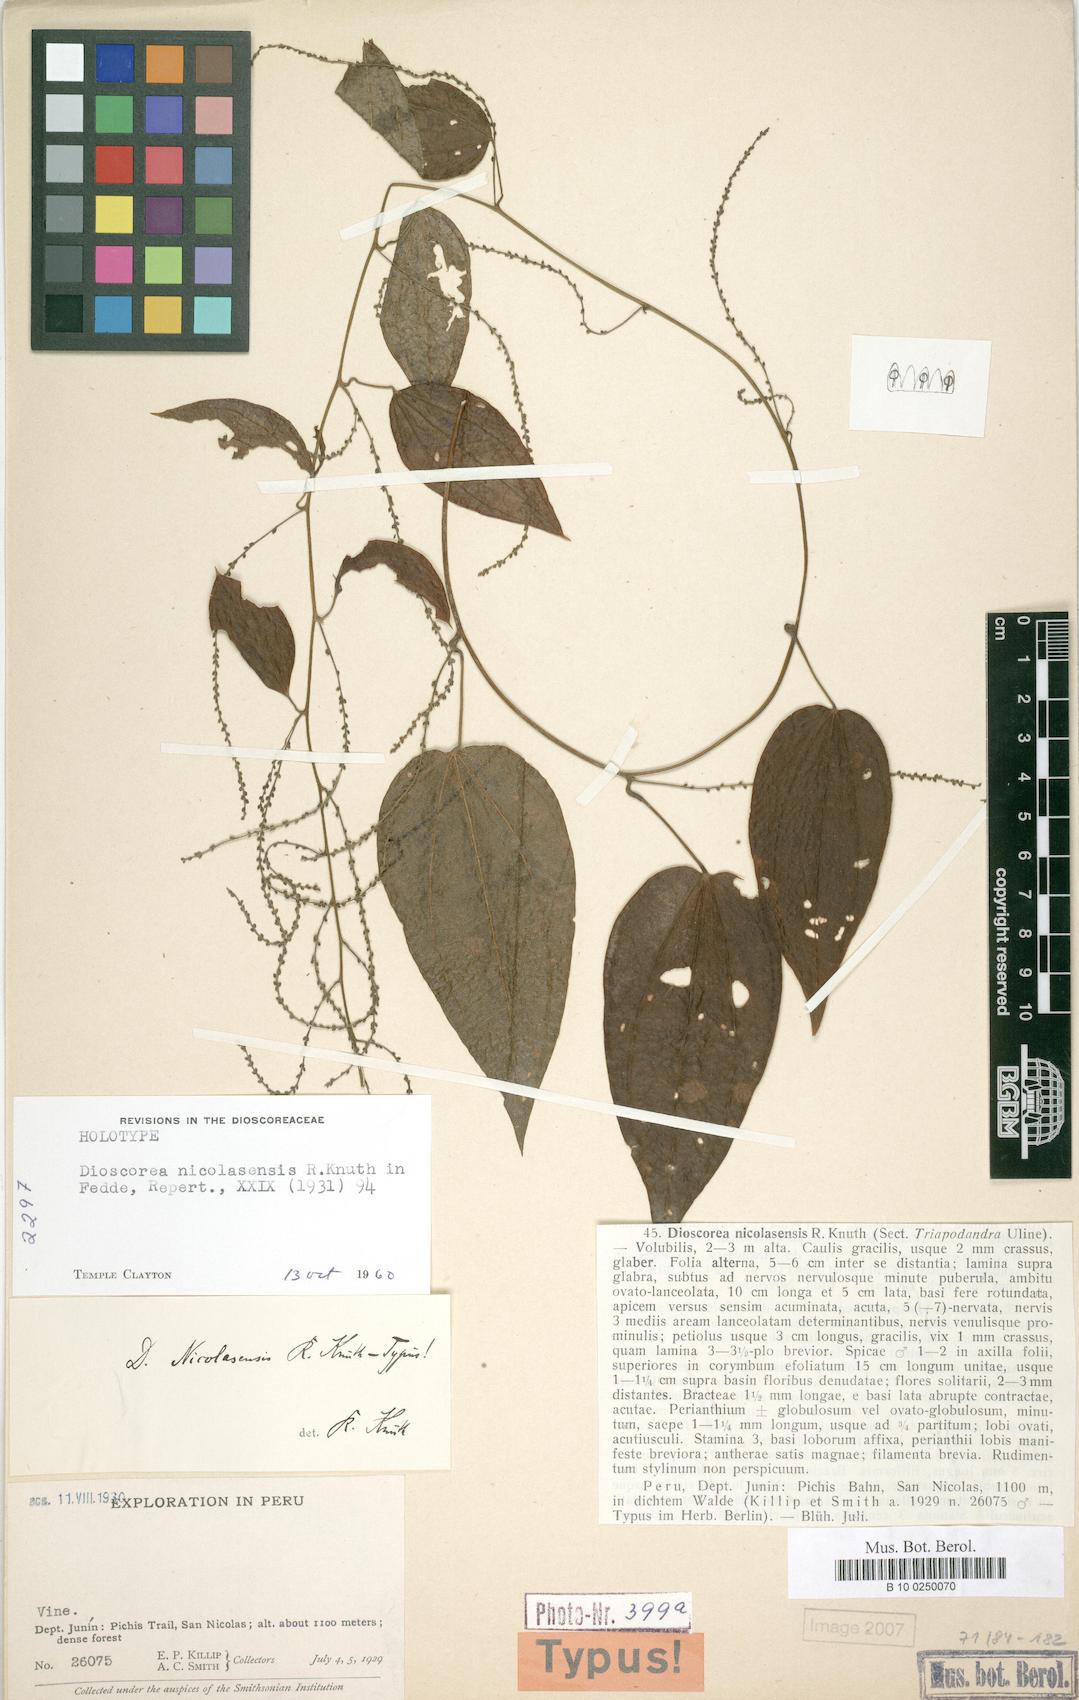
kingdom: Plantae
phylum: Tracheophyta
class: Liliopsida
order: Dioscoreales
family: Dioscoreaceae
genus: Dioscorea
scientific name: Dioscorea nicolasensis
